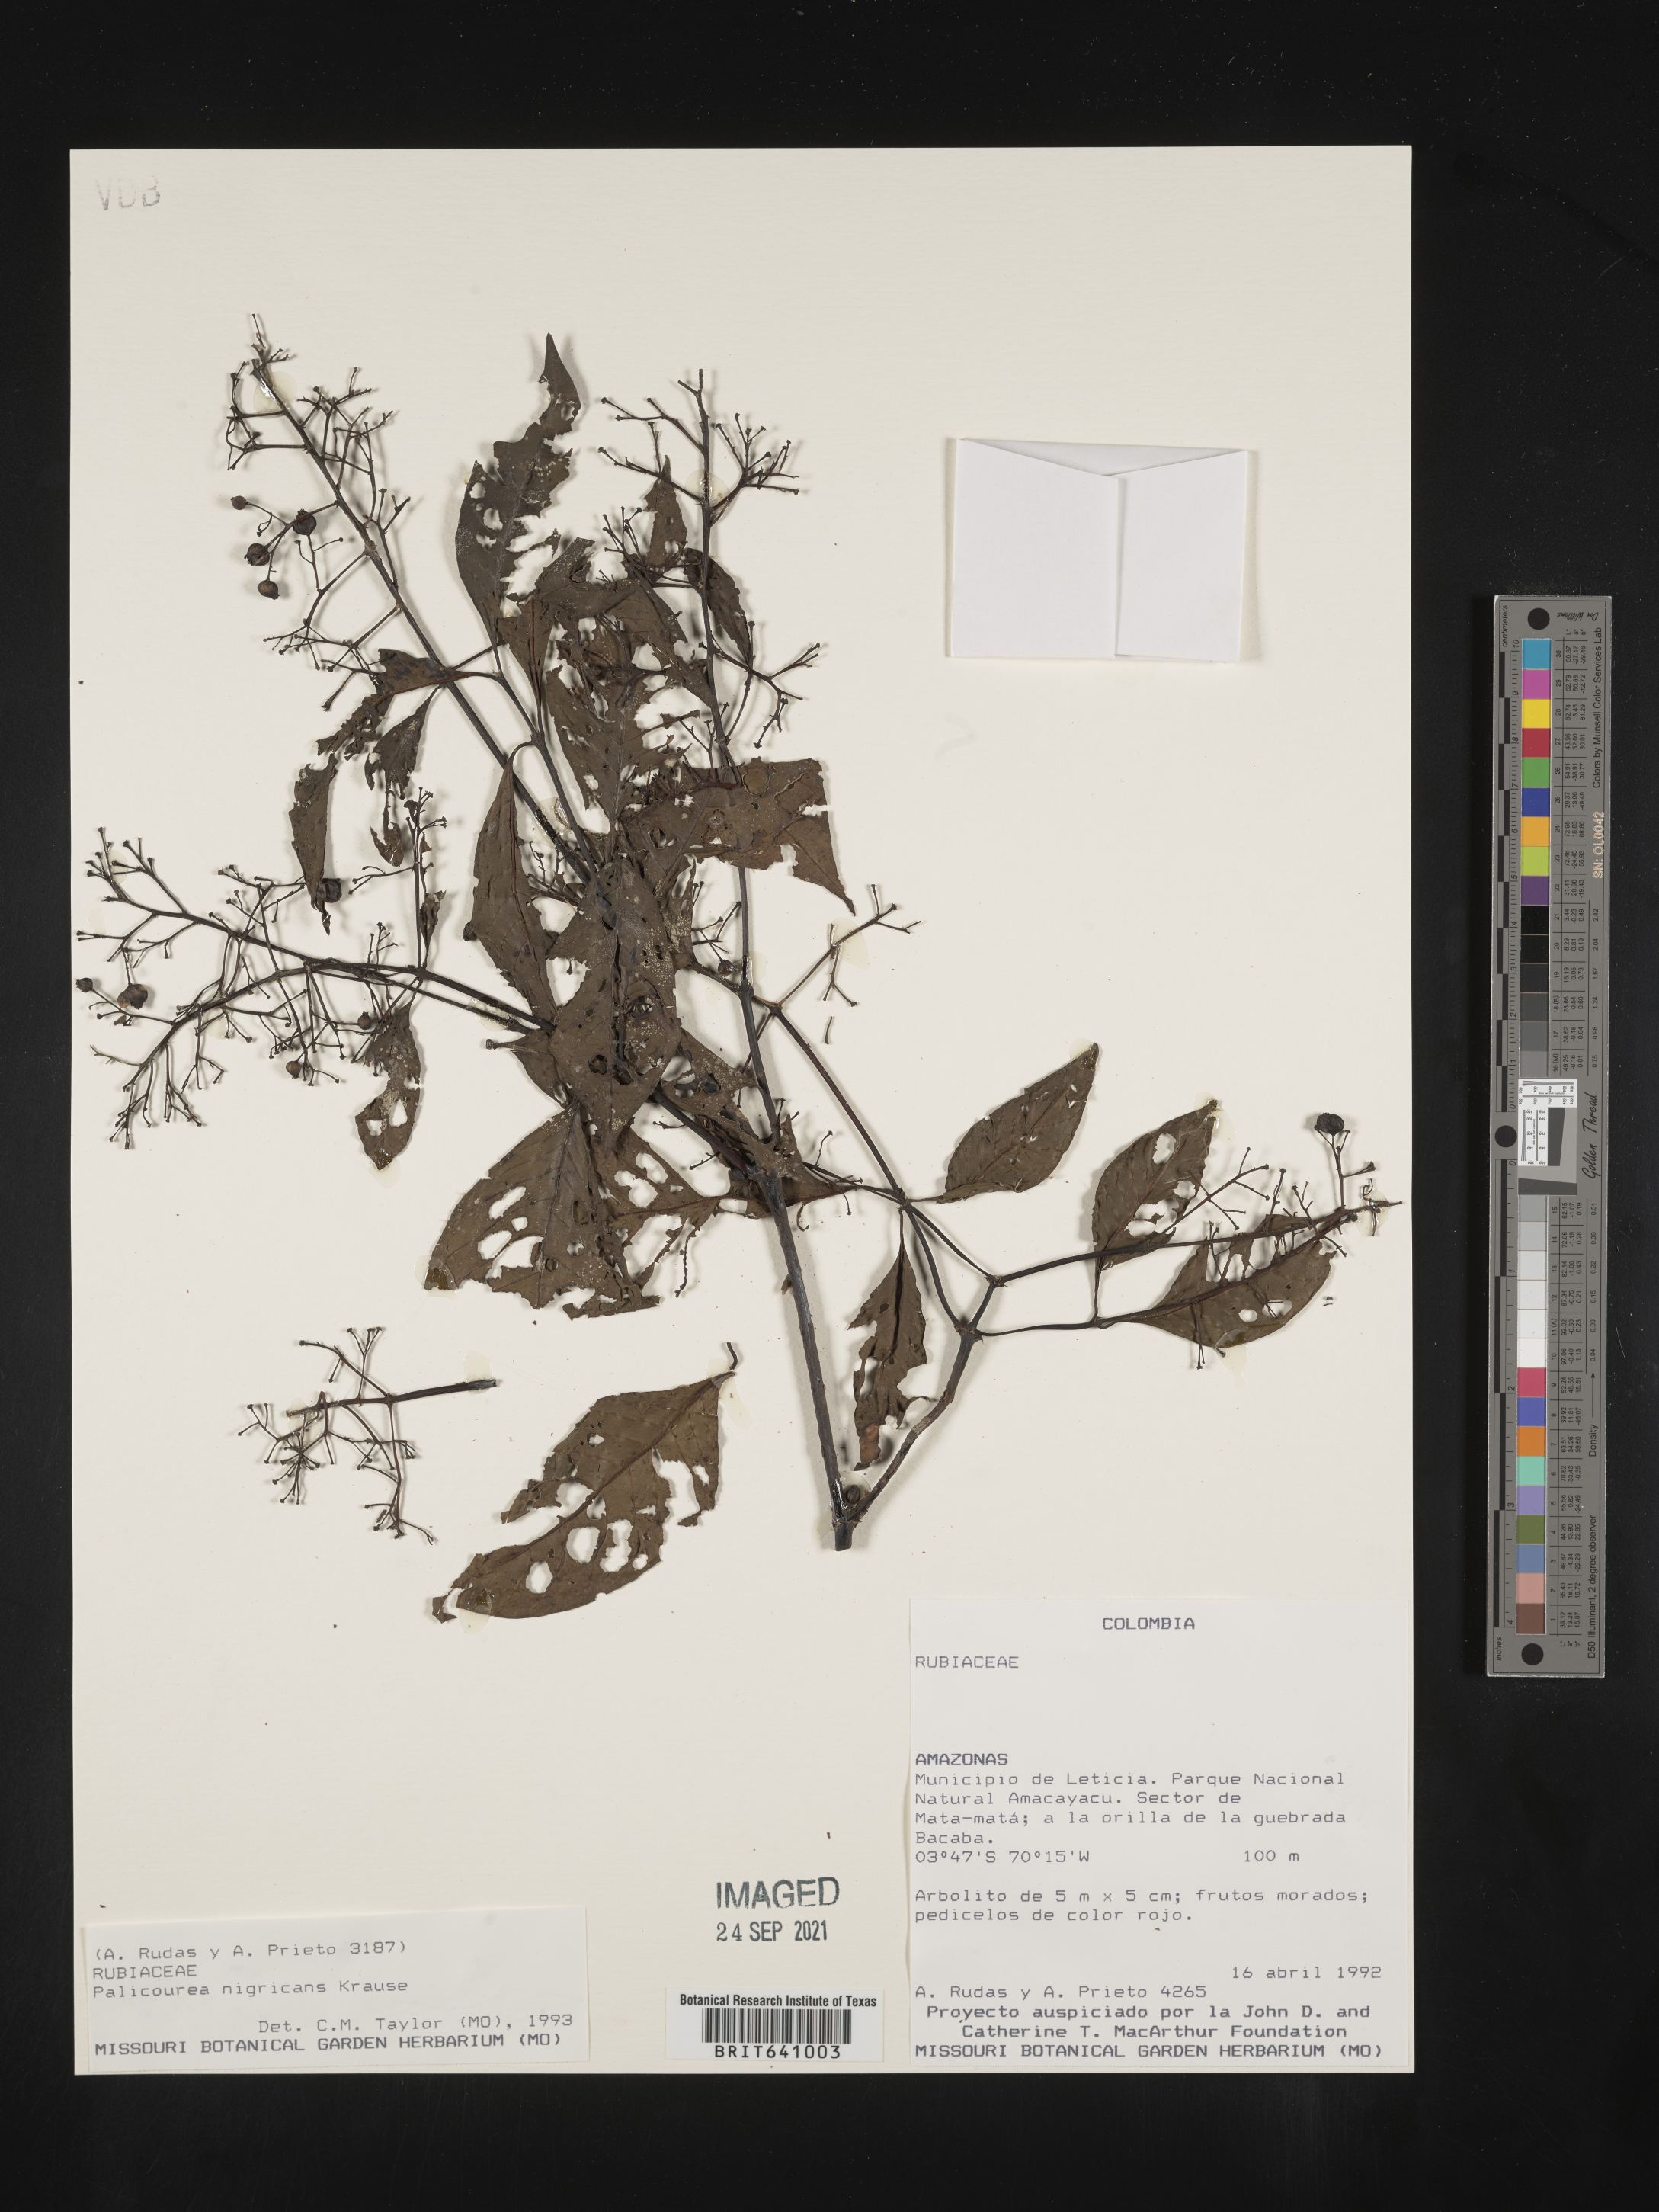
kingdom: Plantae
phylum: Tracheophyta
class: Magnoliopsida
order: Gentianales
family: Rubiaceae
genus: Palicourea
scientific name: Palicourea
